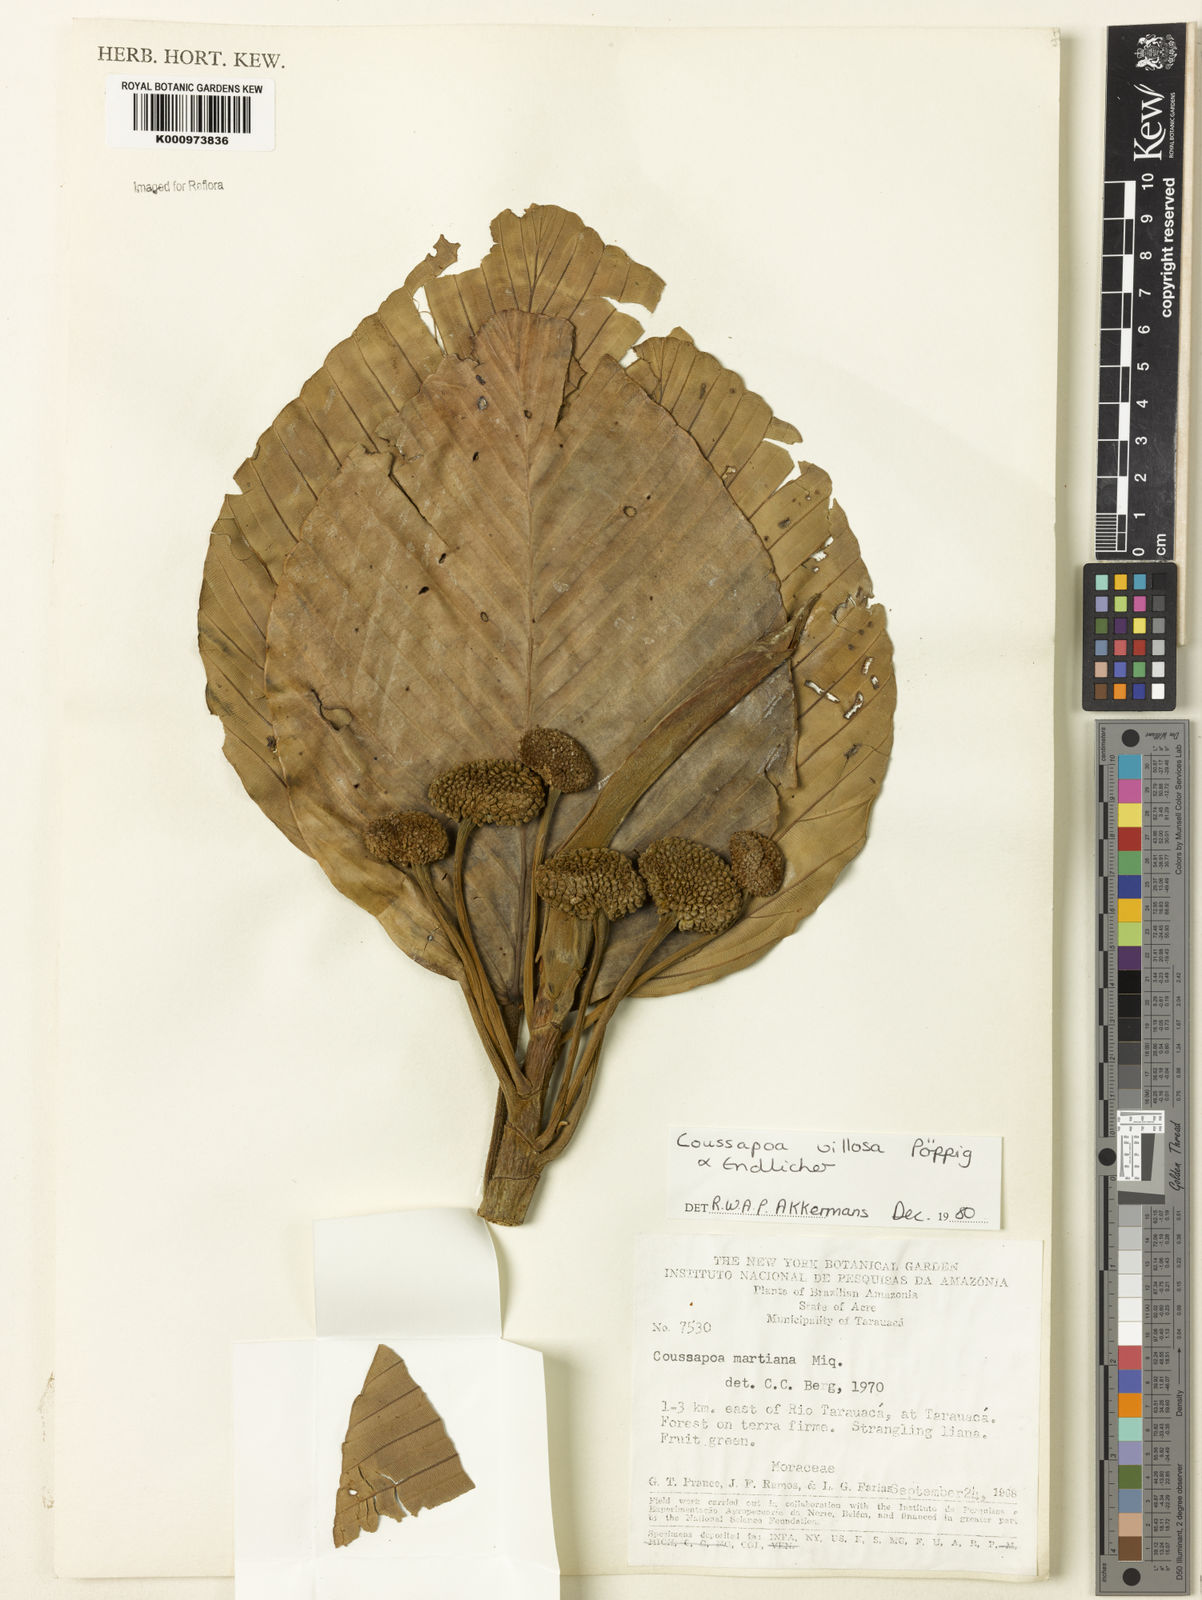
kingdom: Plantae
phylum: Tracheophyta
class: Magnoliopsida
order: Rosales
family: Urticaceae
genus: Coussapoa
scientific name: Coussapoa villosa
